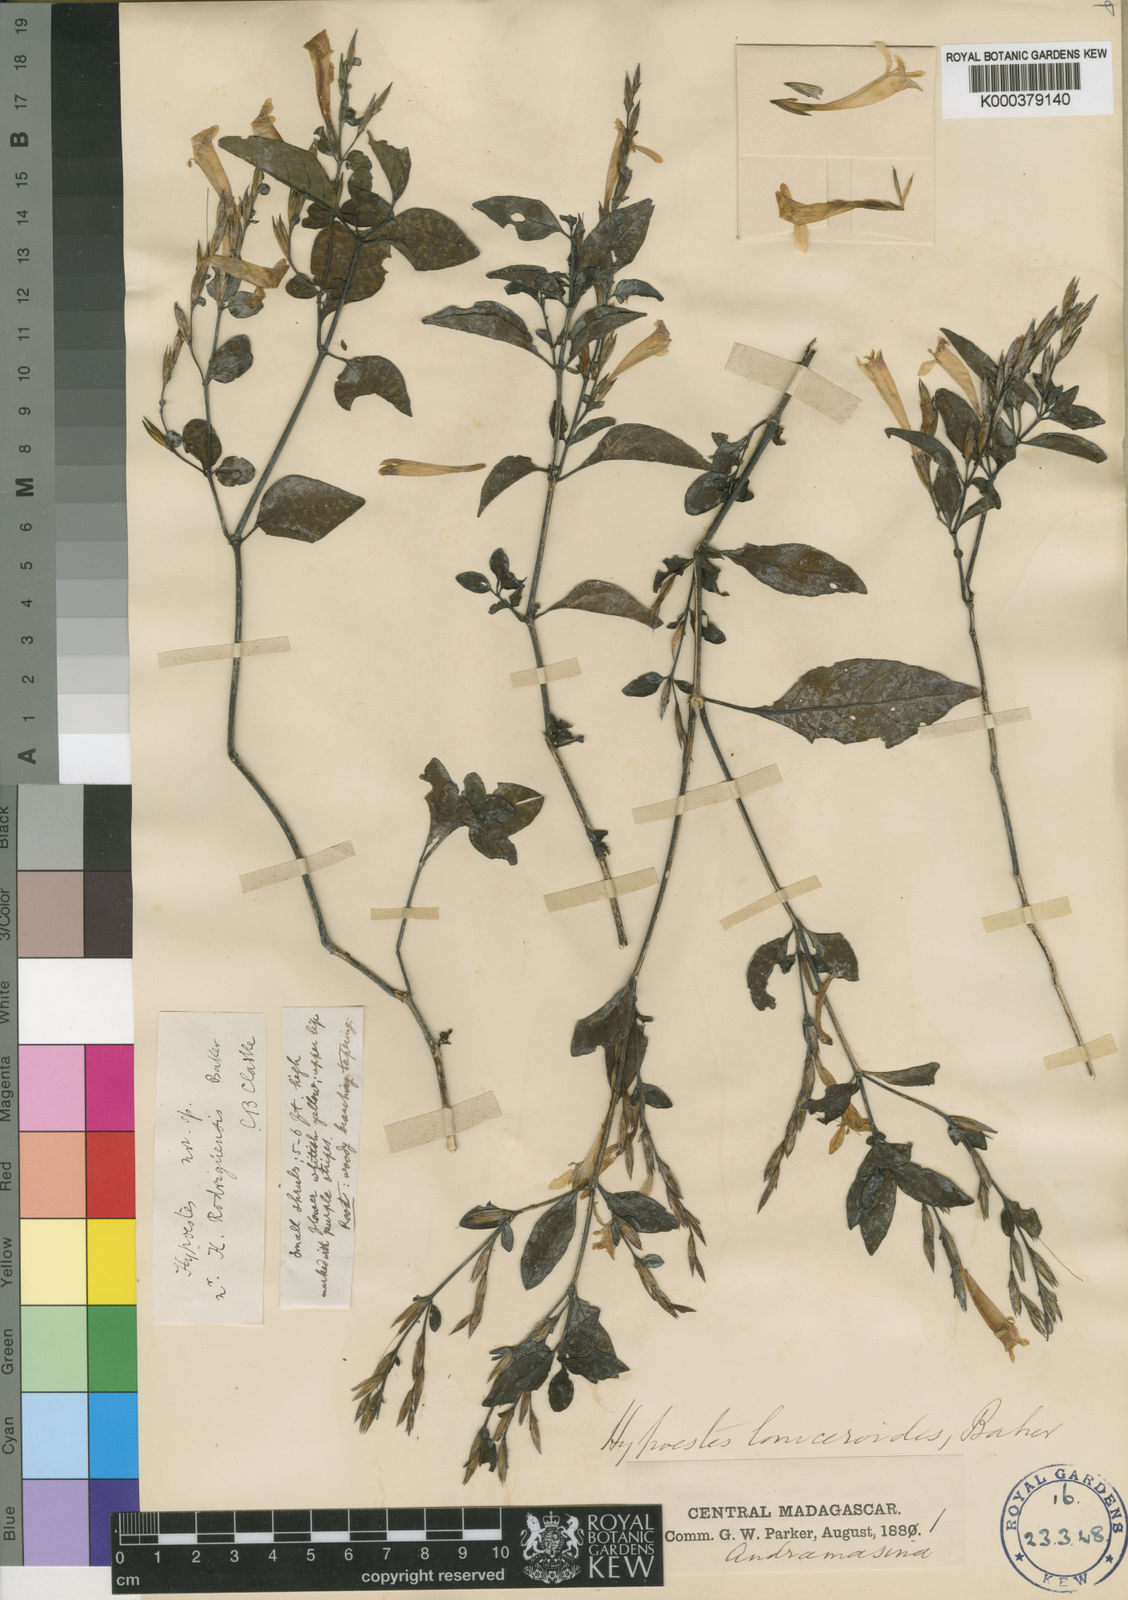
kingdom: Plantae
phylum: Tracheophyta
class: Magnoliopsida
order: Lamiales
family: Acanthaceae
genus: Hypoestes
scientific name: Hypoestes loniceroides
